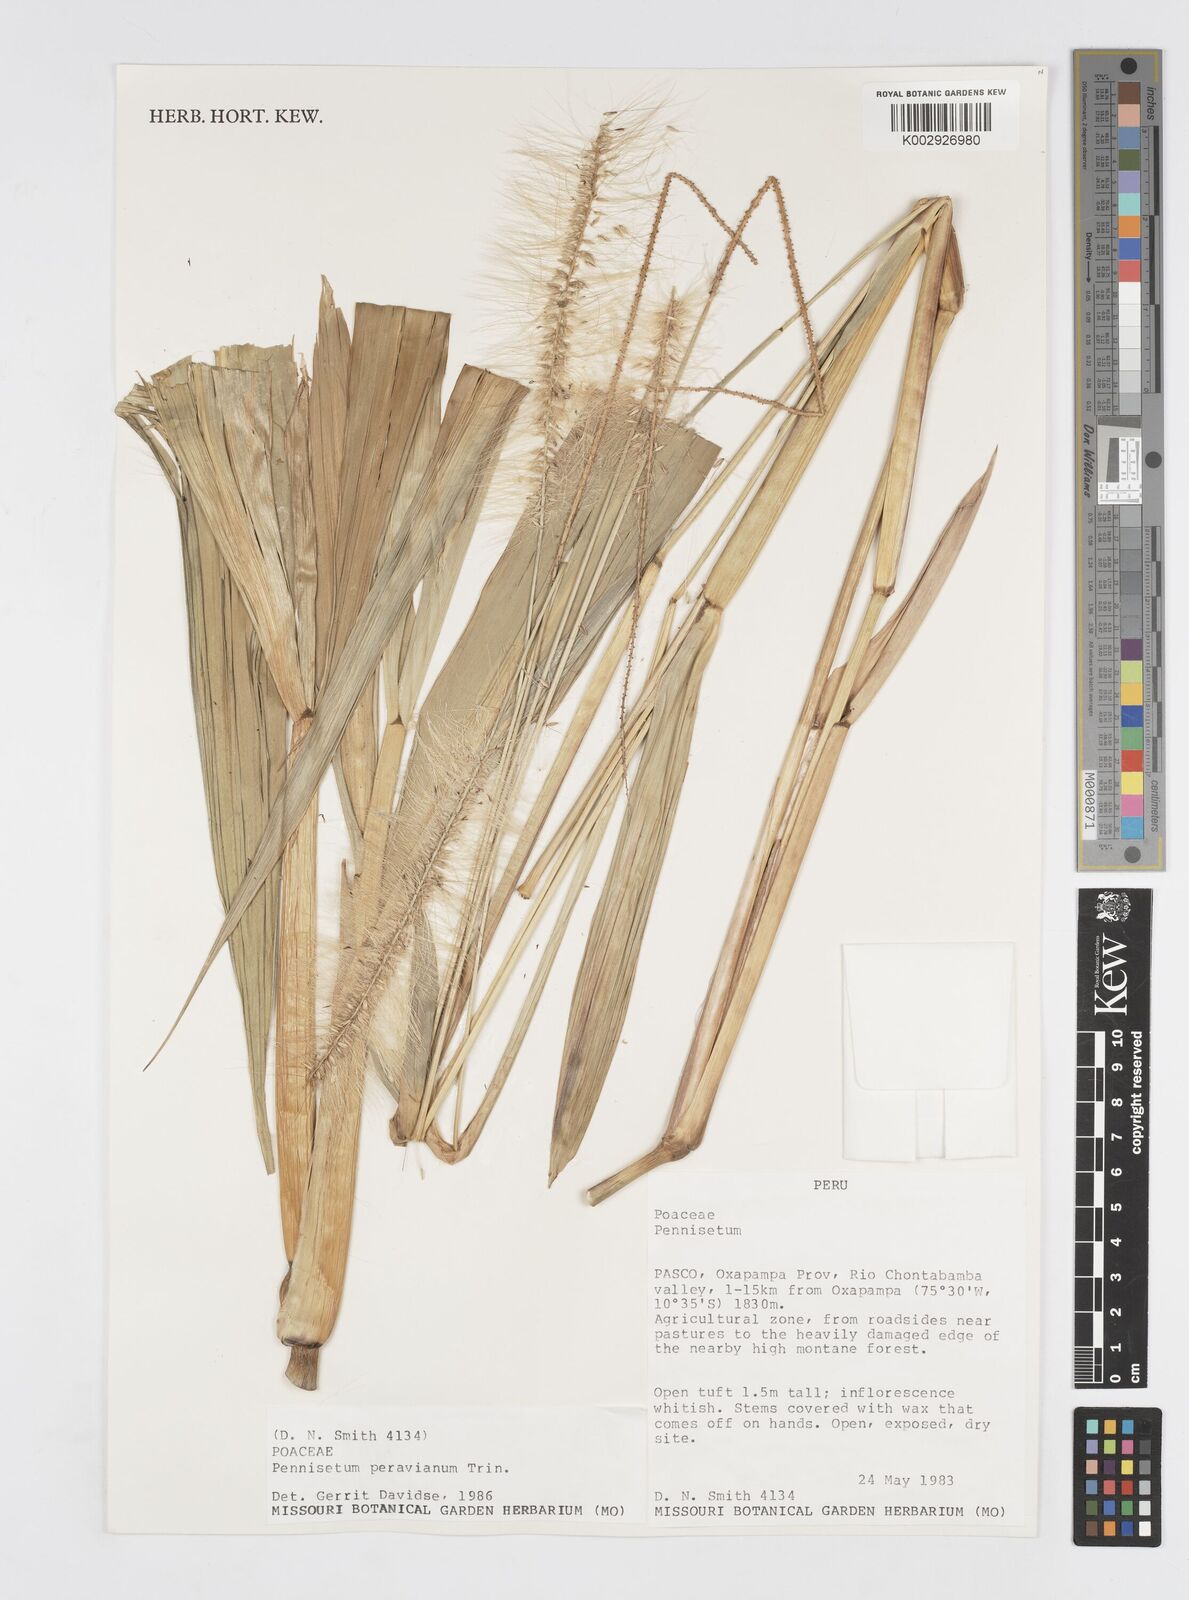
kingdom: Plantae
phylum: Tracheophyta
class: Liliopsida
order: Poales
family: Poaceae
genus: Cenchrus
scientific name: Cenchrus peruvianus
